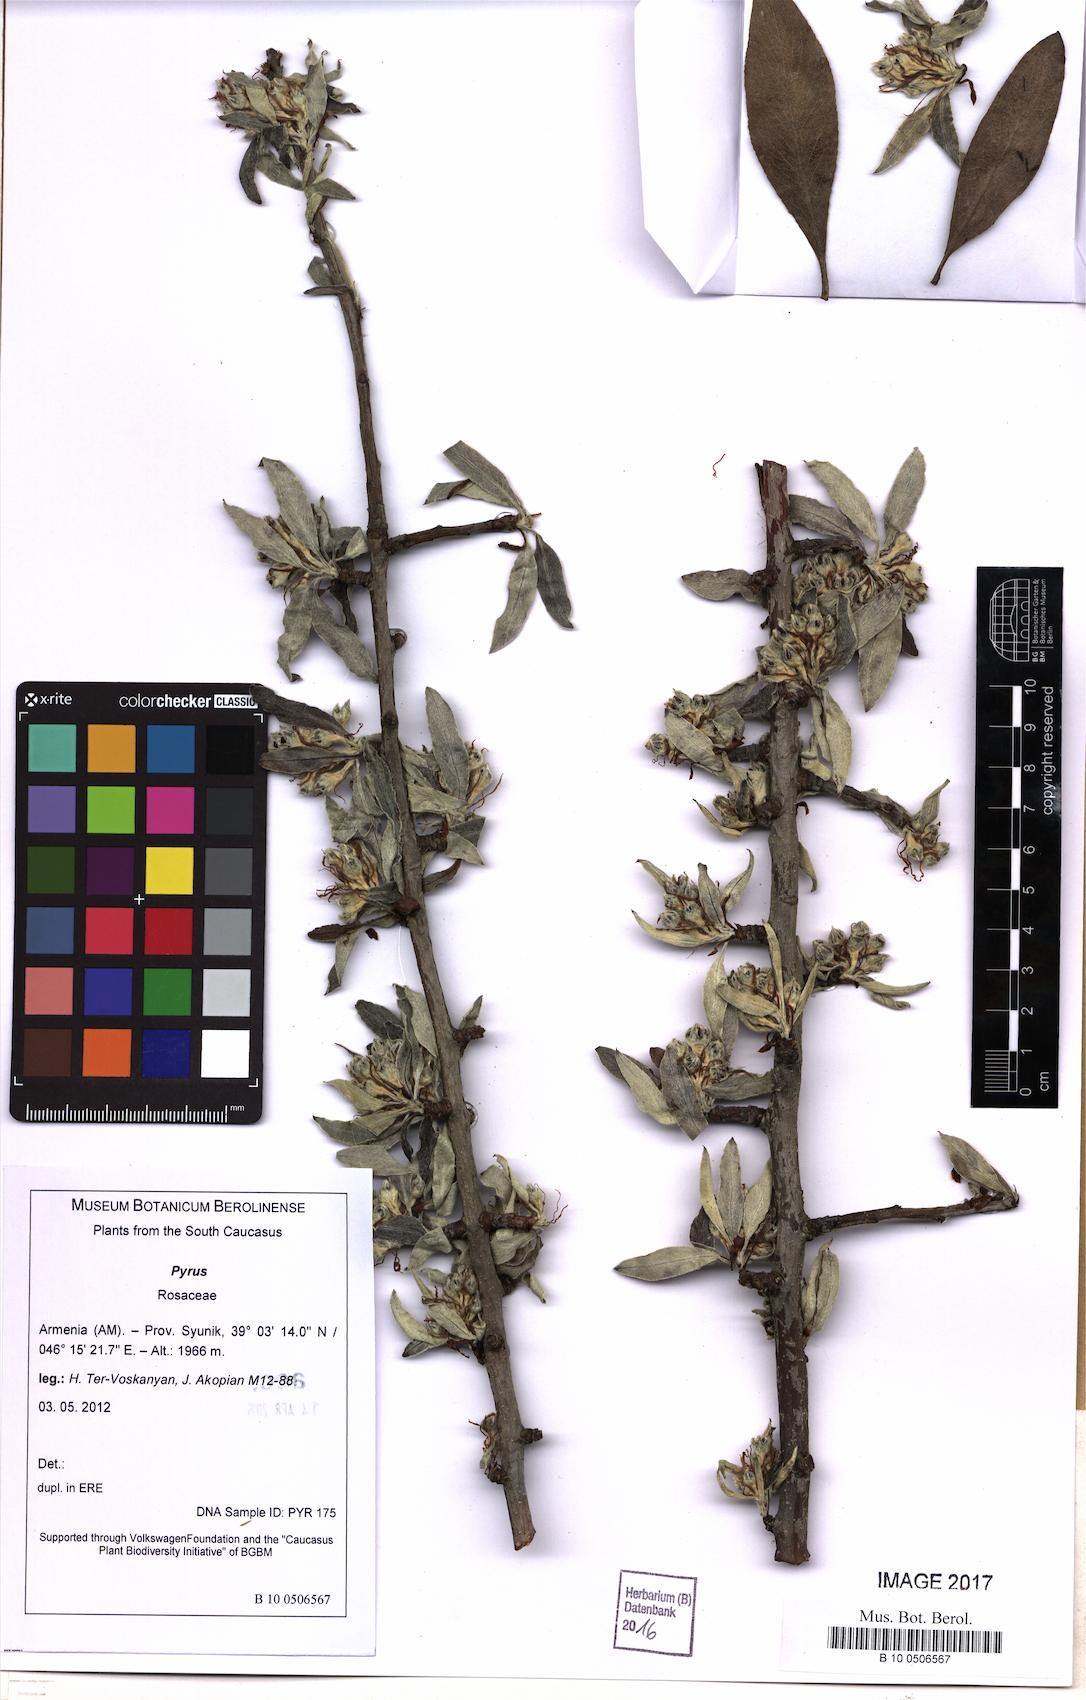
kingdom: Plantae
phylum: Tracheophyta
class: Magnoliopsida
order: Rosales
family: Rosaceae
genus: Pyrus
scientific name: Pyrus
